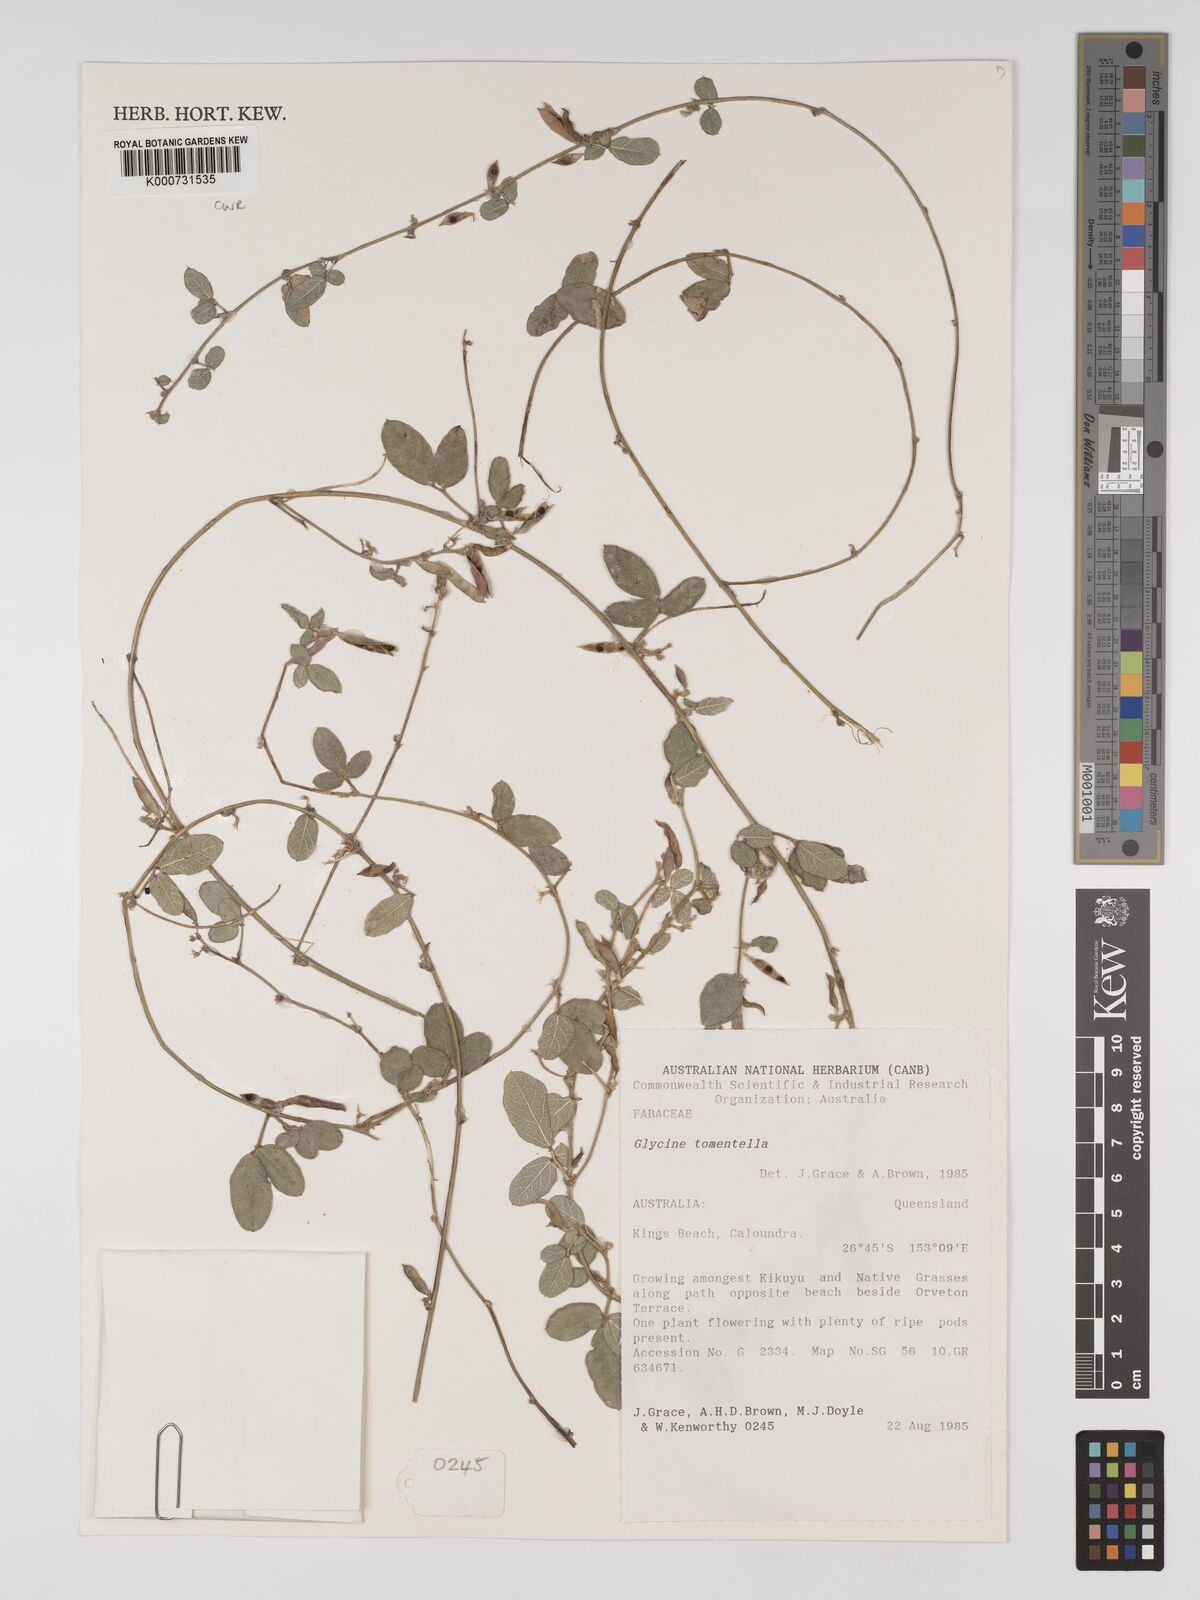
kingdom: Plantae
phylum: Tracheophyta
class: Magnoliopsida
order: Fabales
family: Fabaceae
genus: Glycine
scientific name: Glycine tomentella
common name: Hairy glycine
